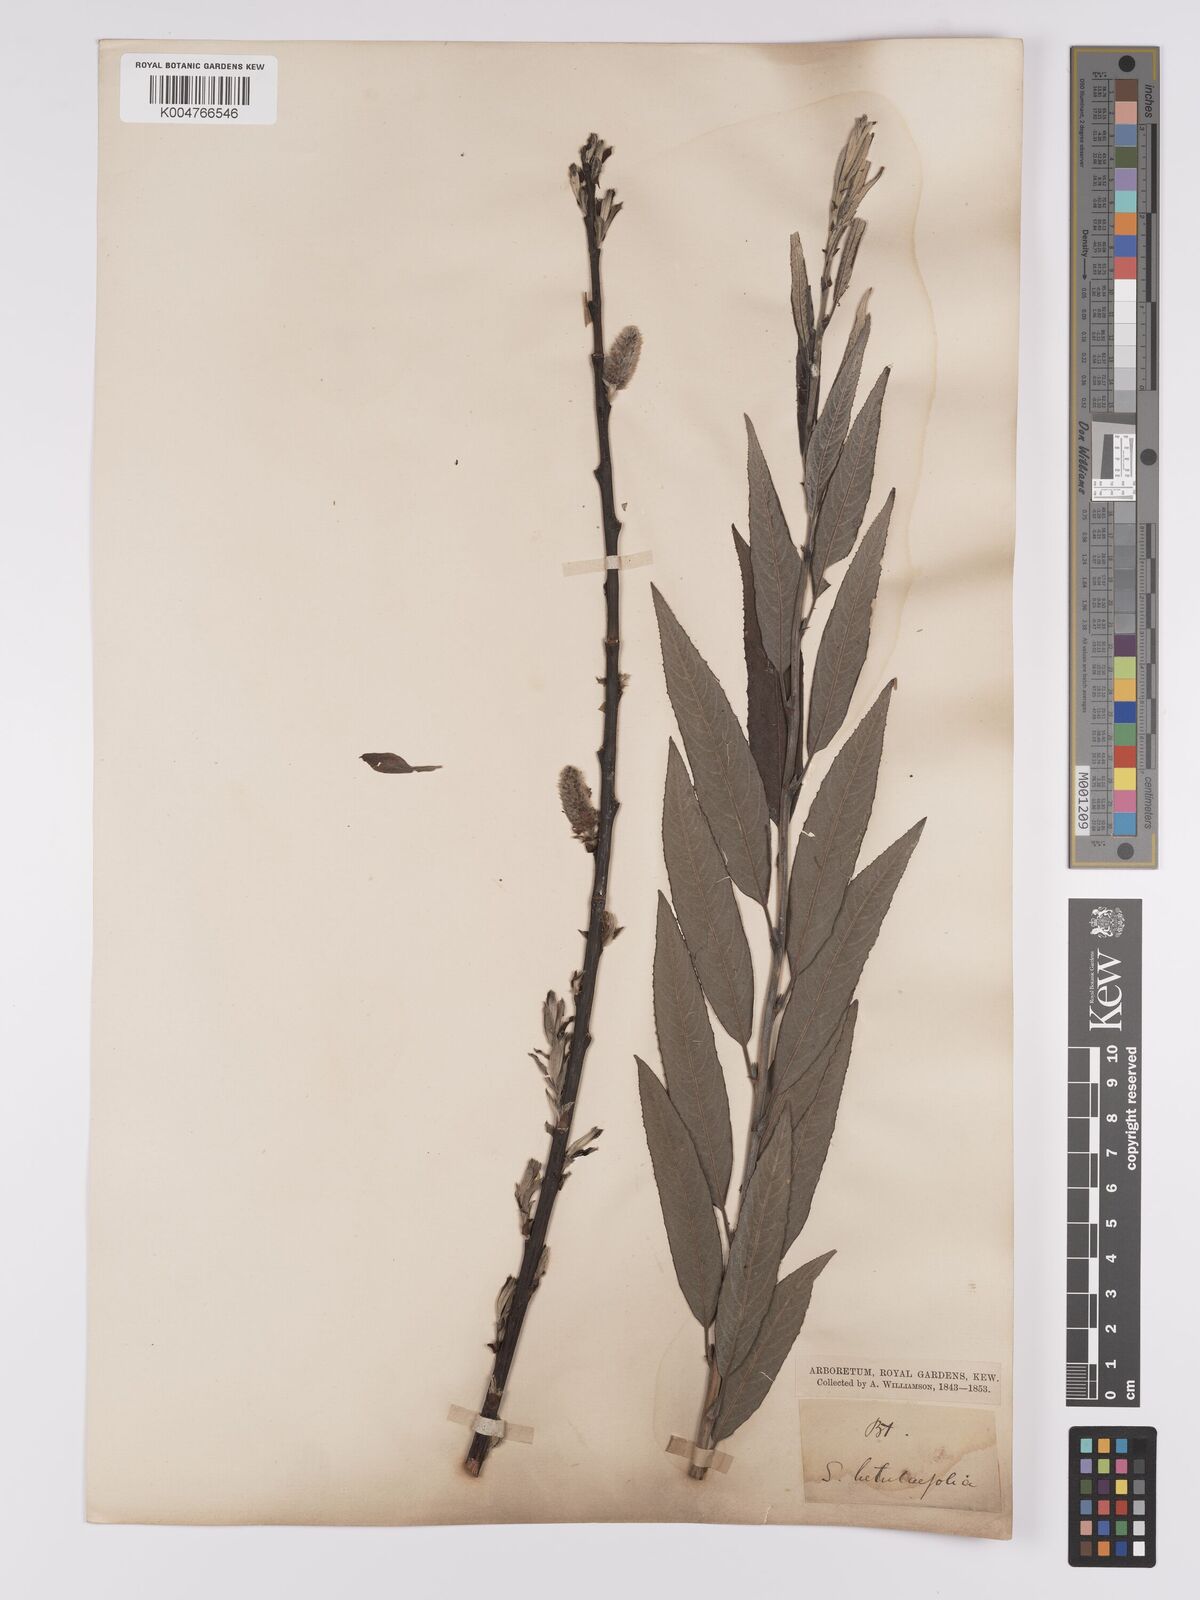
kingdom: Plantae
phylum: Tracheophyta
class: Magnoliopsida
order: Malpighiales
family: Salicaceae
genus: Salix
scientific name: Salix caprea
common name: Goat willow
